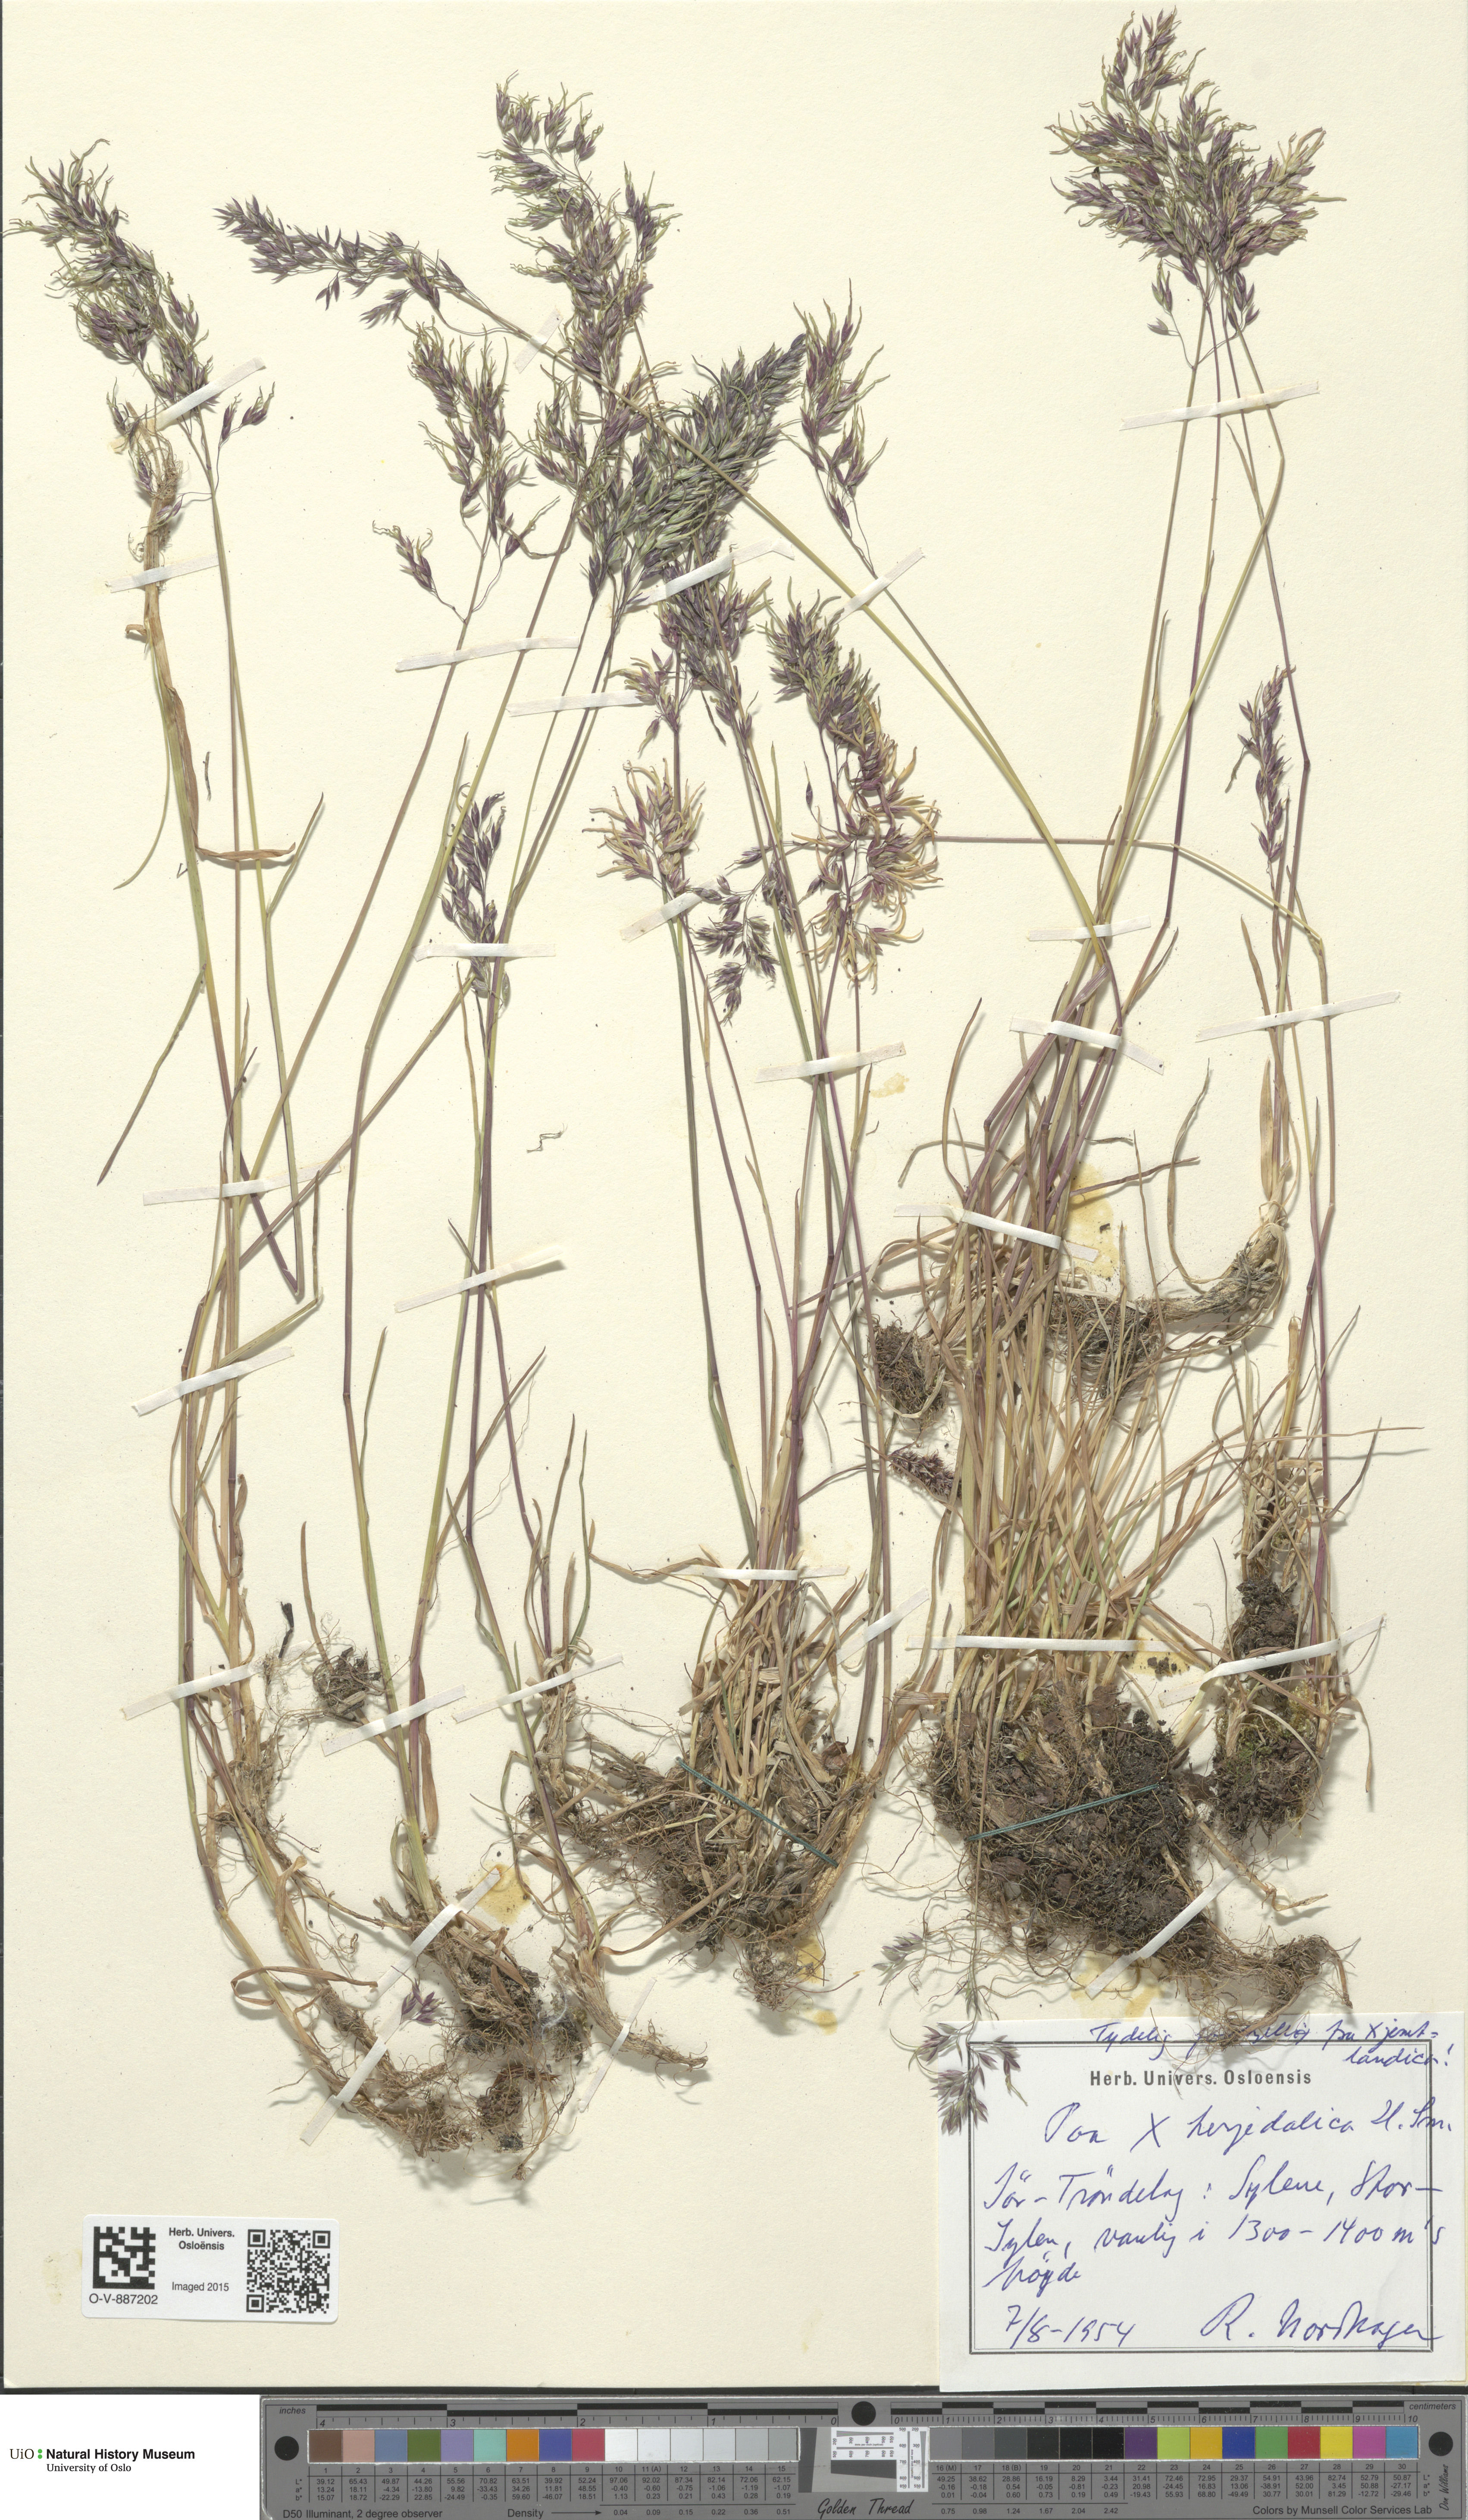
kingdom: Plantae
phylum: Tracheophyta
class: Liliopsida
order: Poales
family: Poaceae
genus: Poa
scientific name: Poa herjedalica
